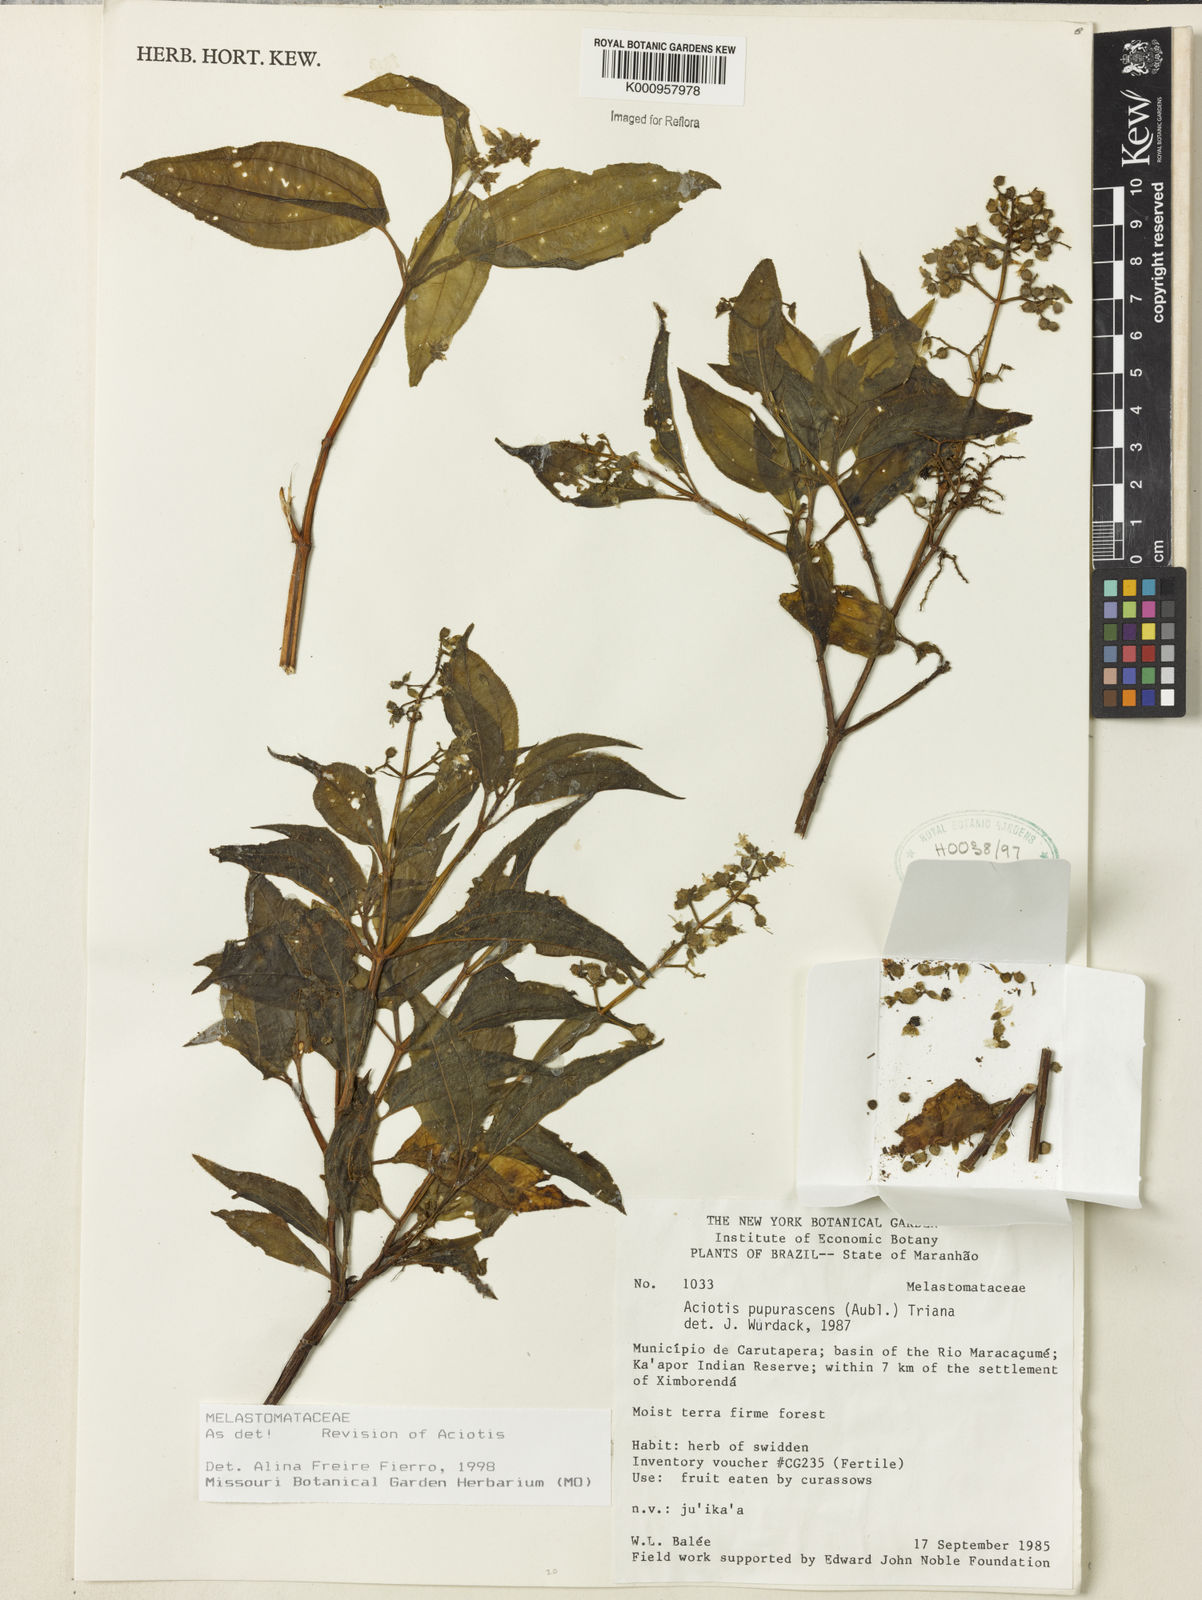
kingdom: Plantae
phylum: Tracheophyta
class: Magnoliopsida
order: Myrtales
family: Melastomataceae
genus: Aciotis
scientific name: Aciotis purpurascens
